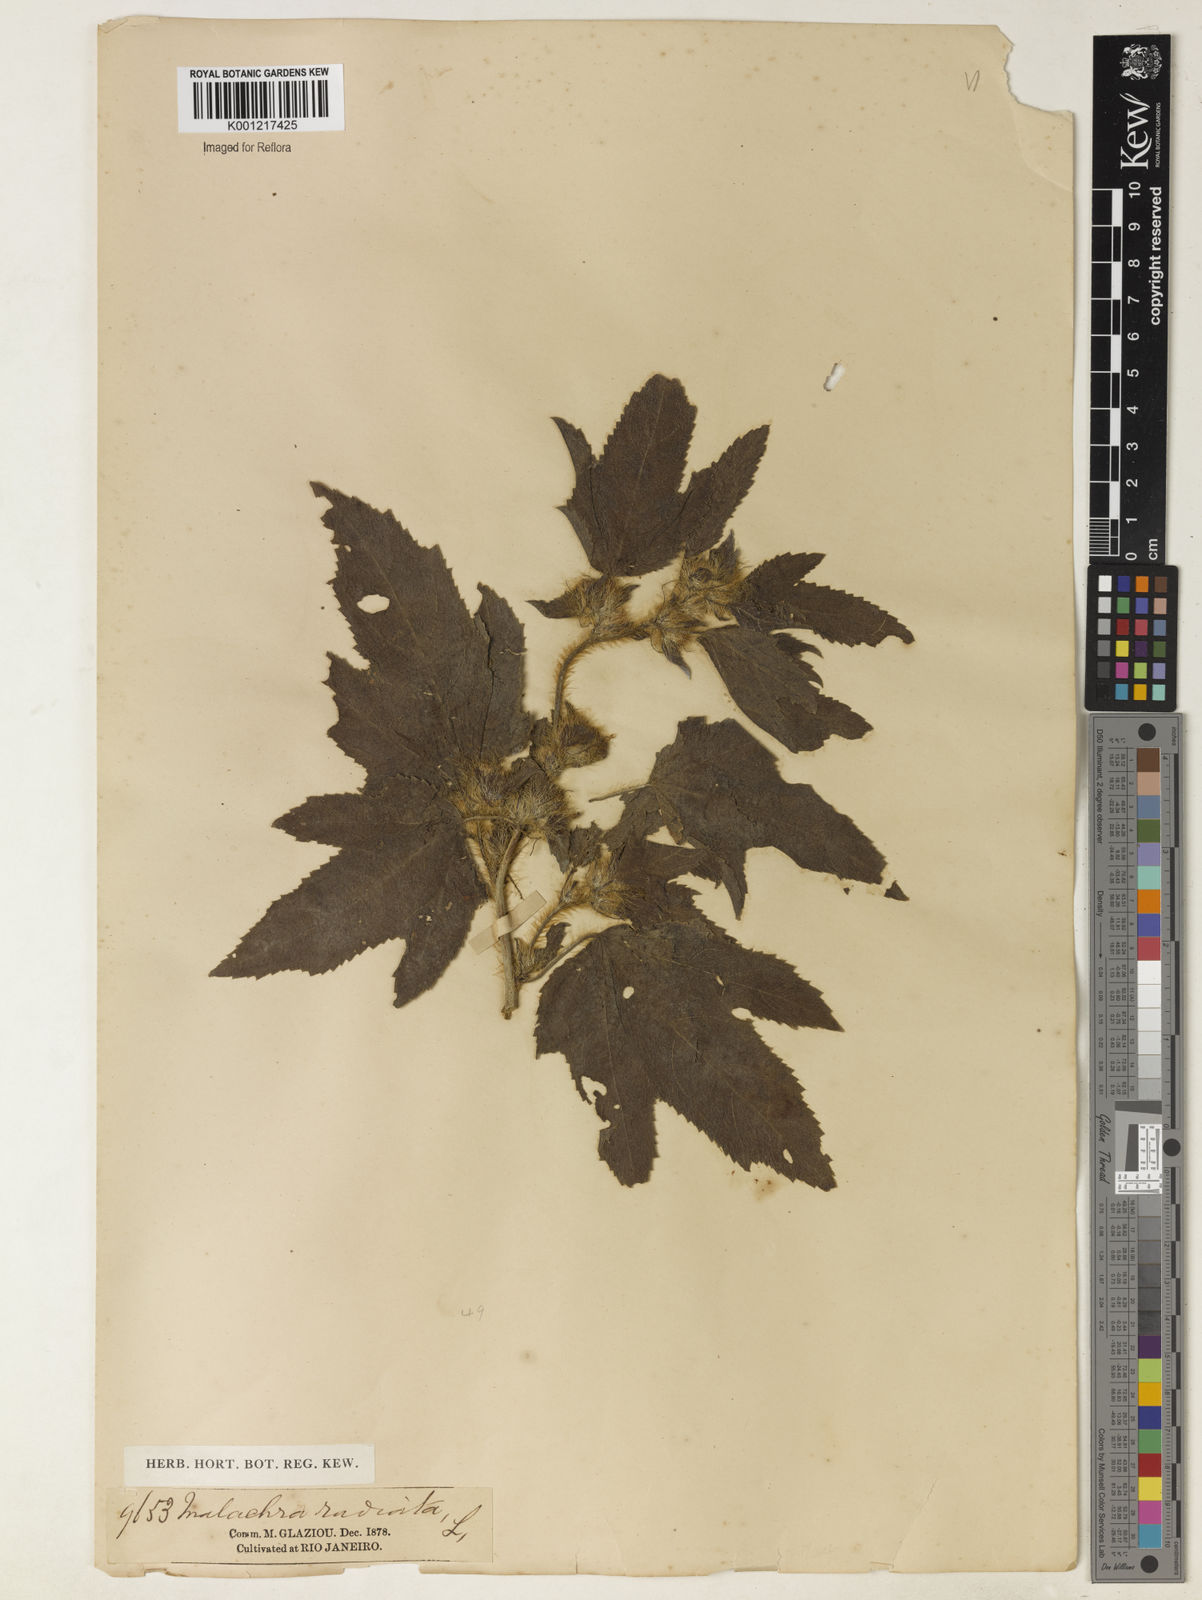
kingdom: Plantae
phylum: Tracheophyta
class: Magnoliopsida
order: Malvales
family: Malvaceae
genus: Malachra
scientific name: Malachra radiata
